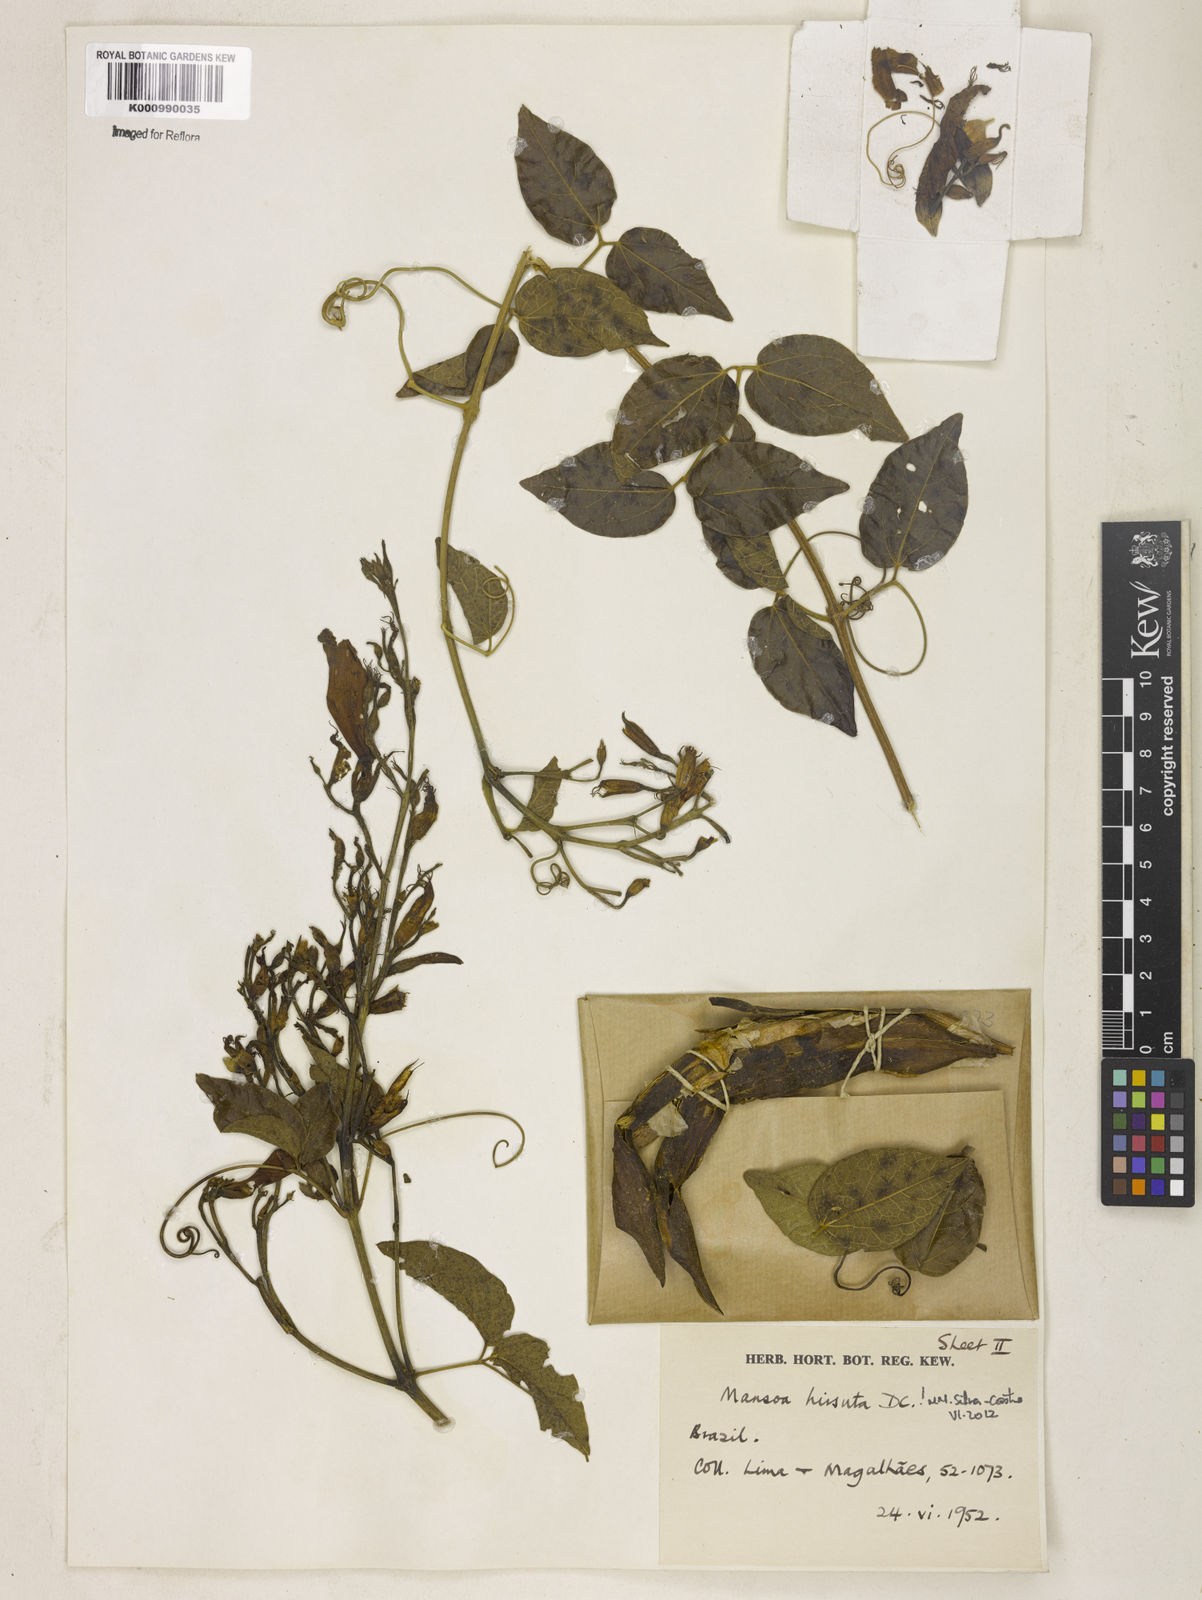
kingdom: Plantae
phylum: Tracheophyta
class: Magnoliopsida
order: Lamiales
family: Bignoniaceae
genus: Mansoa
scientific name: Mansoa hirsuta
